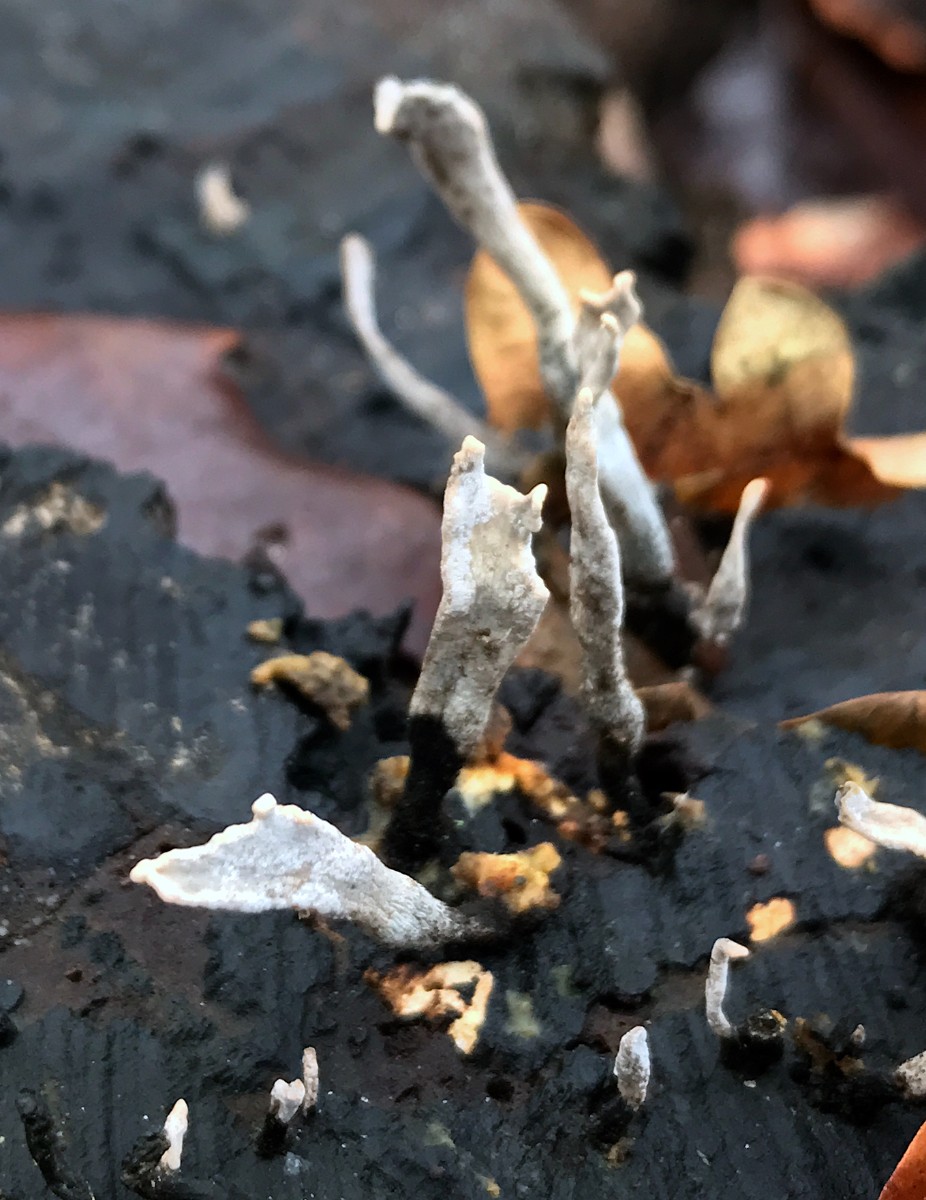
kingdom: Fungi
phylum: Ascomycota
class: Sordariomycetes
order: Xylariales
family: Xylariaceae
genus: Xylaria
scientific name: Xylaria hypoxylon
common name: grenet stødsvamp
